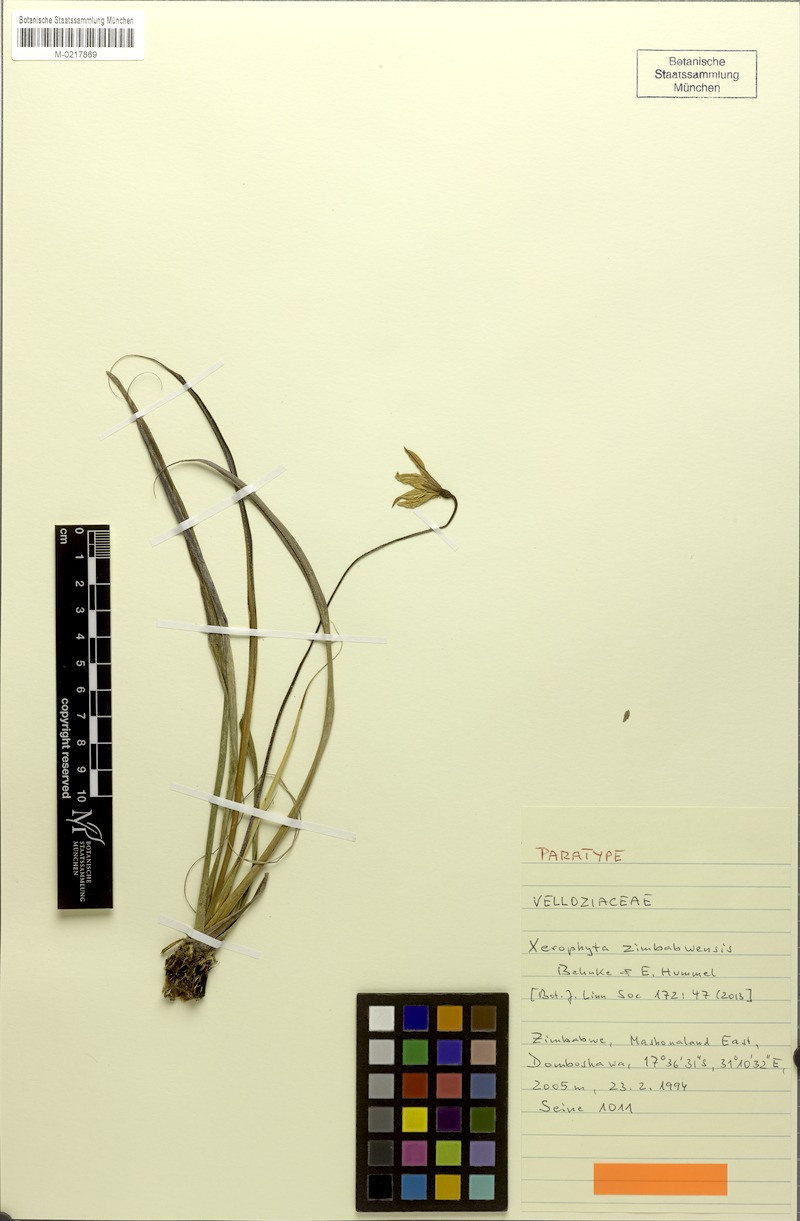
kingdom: Plantae
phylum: Tracheophyta
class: Liliopsida
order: Pandanales
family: Velloziaceae
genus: Xerophyta
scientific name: Xerophyta zimbabwensis
